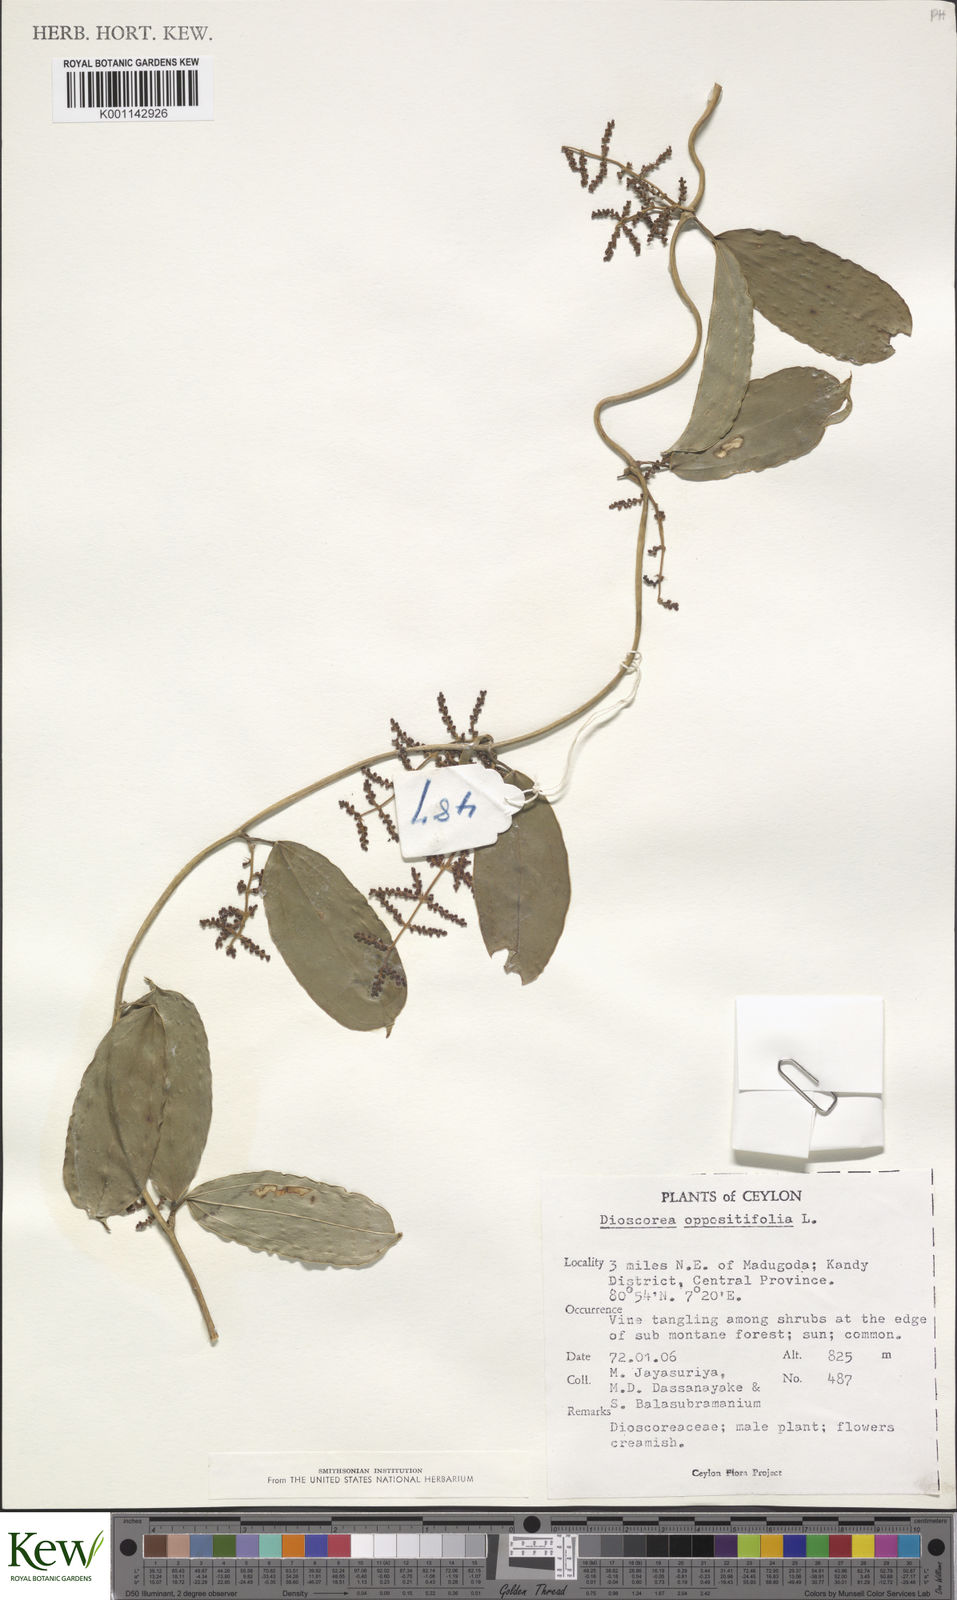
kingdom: Plantae
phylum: Tracheophyta
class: Liliopsida
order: Dioscoreales
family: Dioscoreaceae
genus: Dioscorea
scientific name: Dioscorea oppositifolia
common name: Chinese yam
